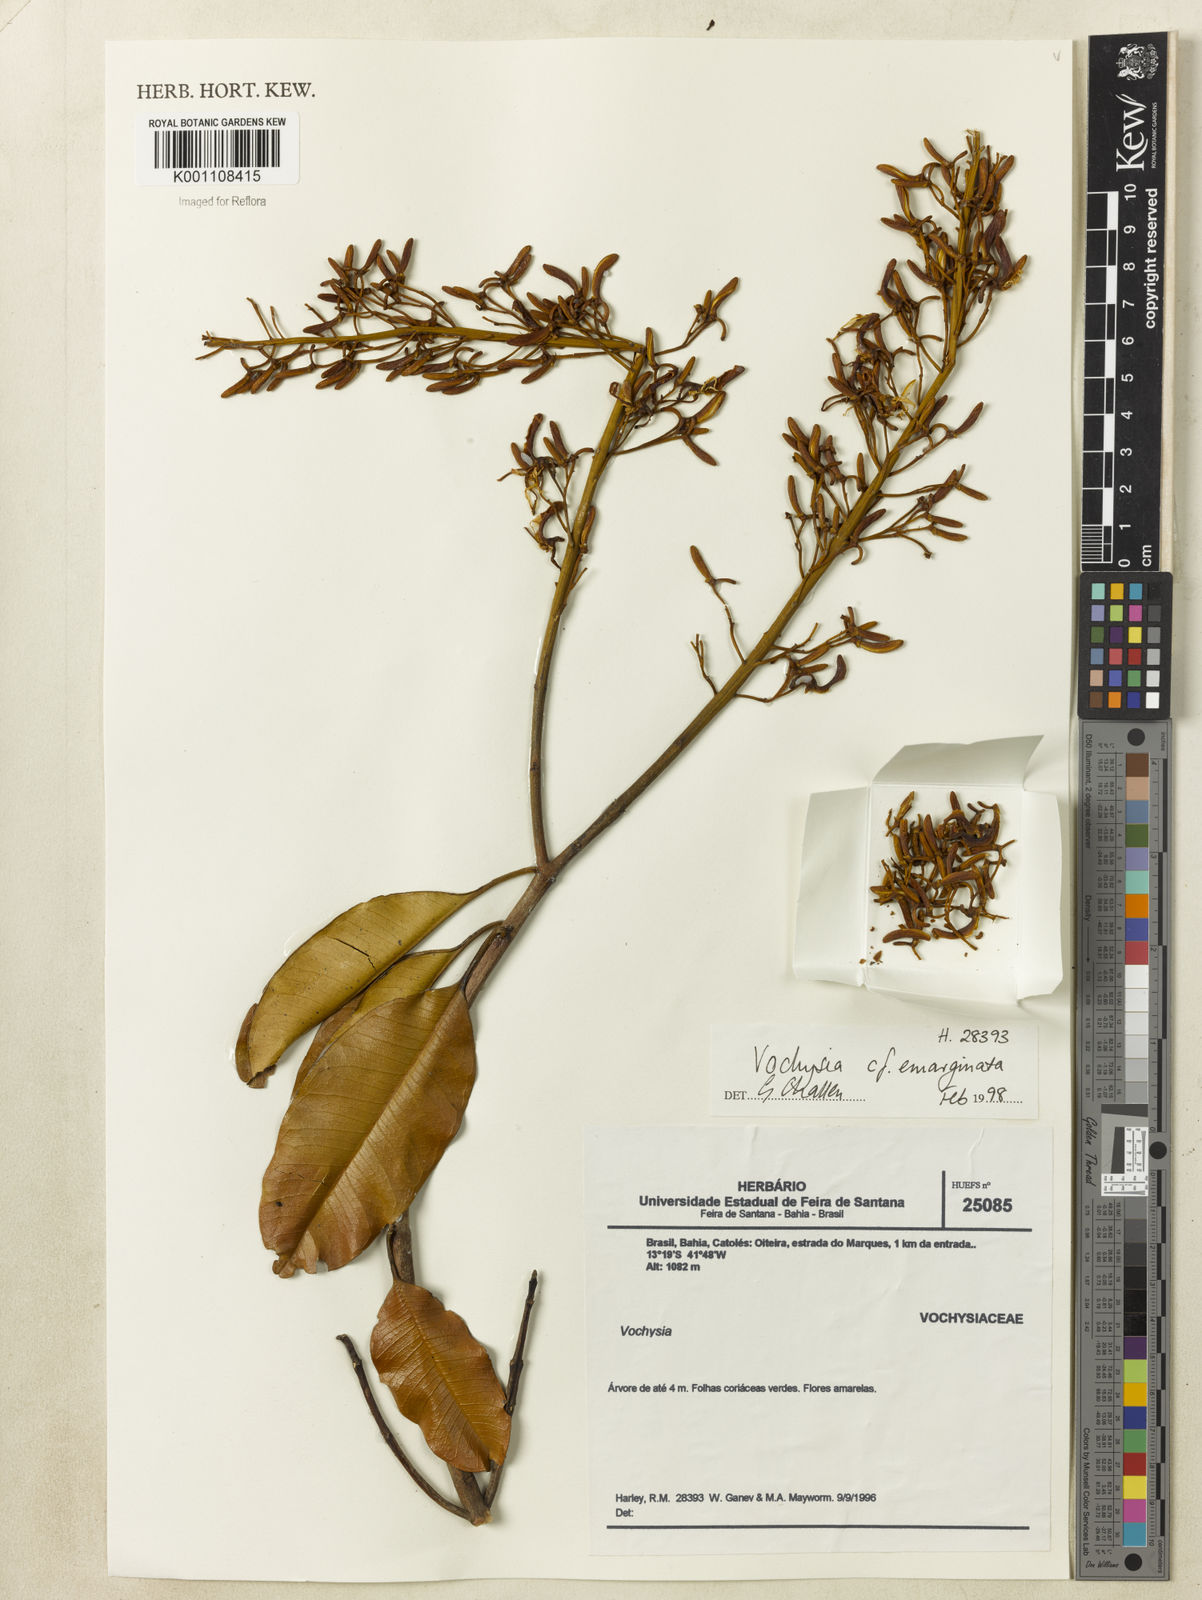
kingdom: Plantae
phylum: Tracheophyta
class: Magnoliopsida
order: Myrtales
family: Vochysiaceae
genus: Vochysia
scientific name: Vochysia
